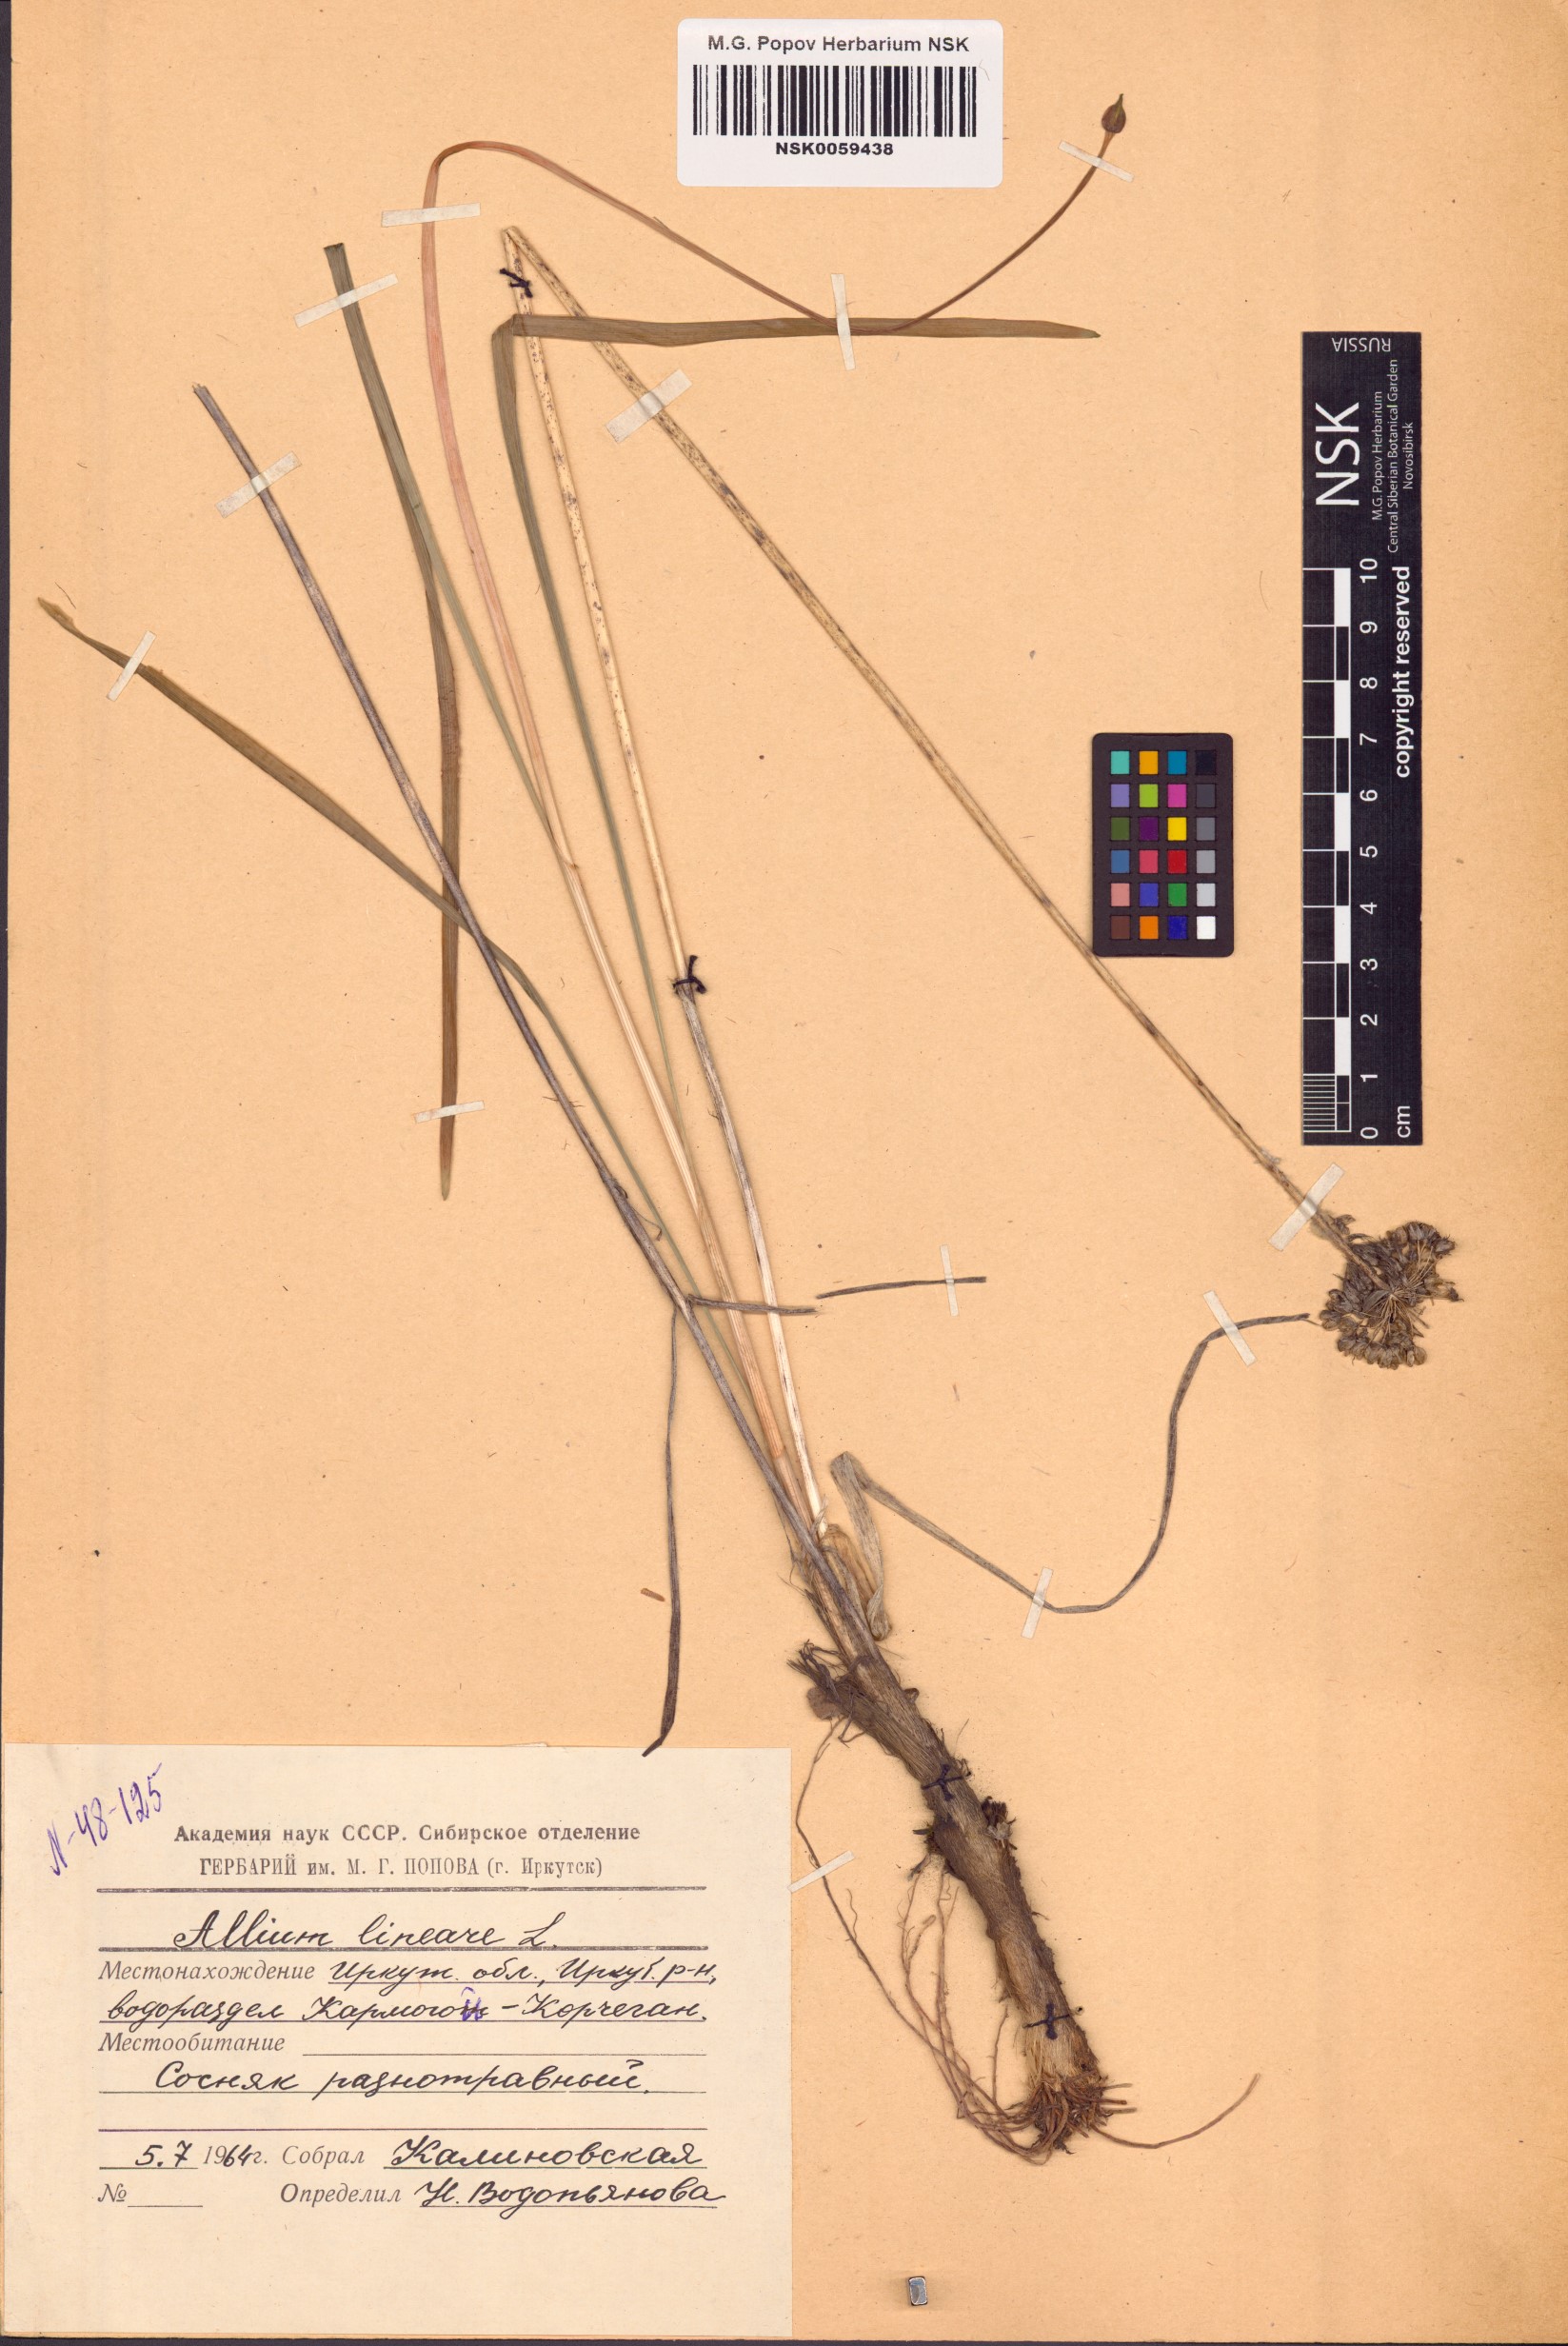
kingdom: Plantae
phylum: Tracheophyta
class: Liliopsida
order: Asparagales
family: Amaryllidaceae
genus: Allium
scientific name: Allium lineare
